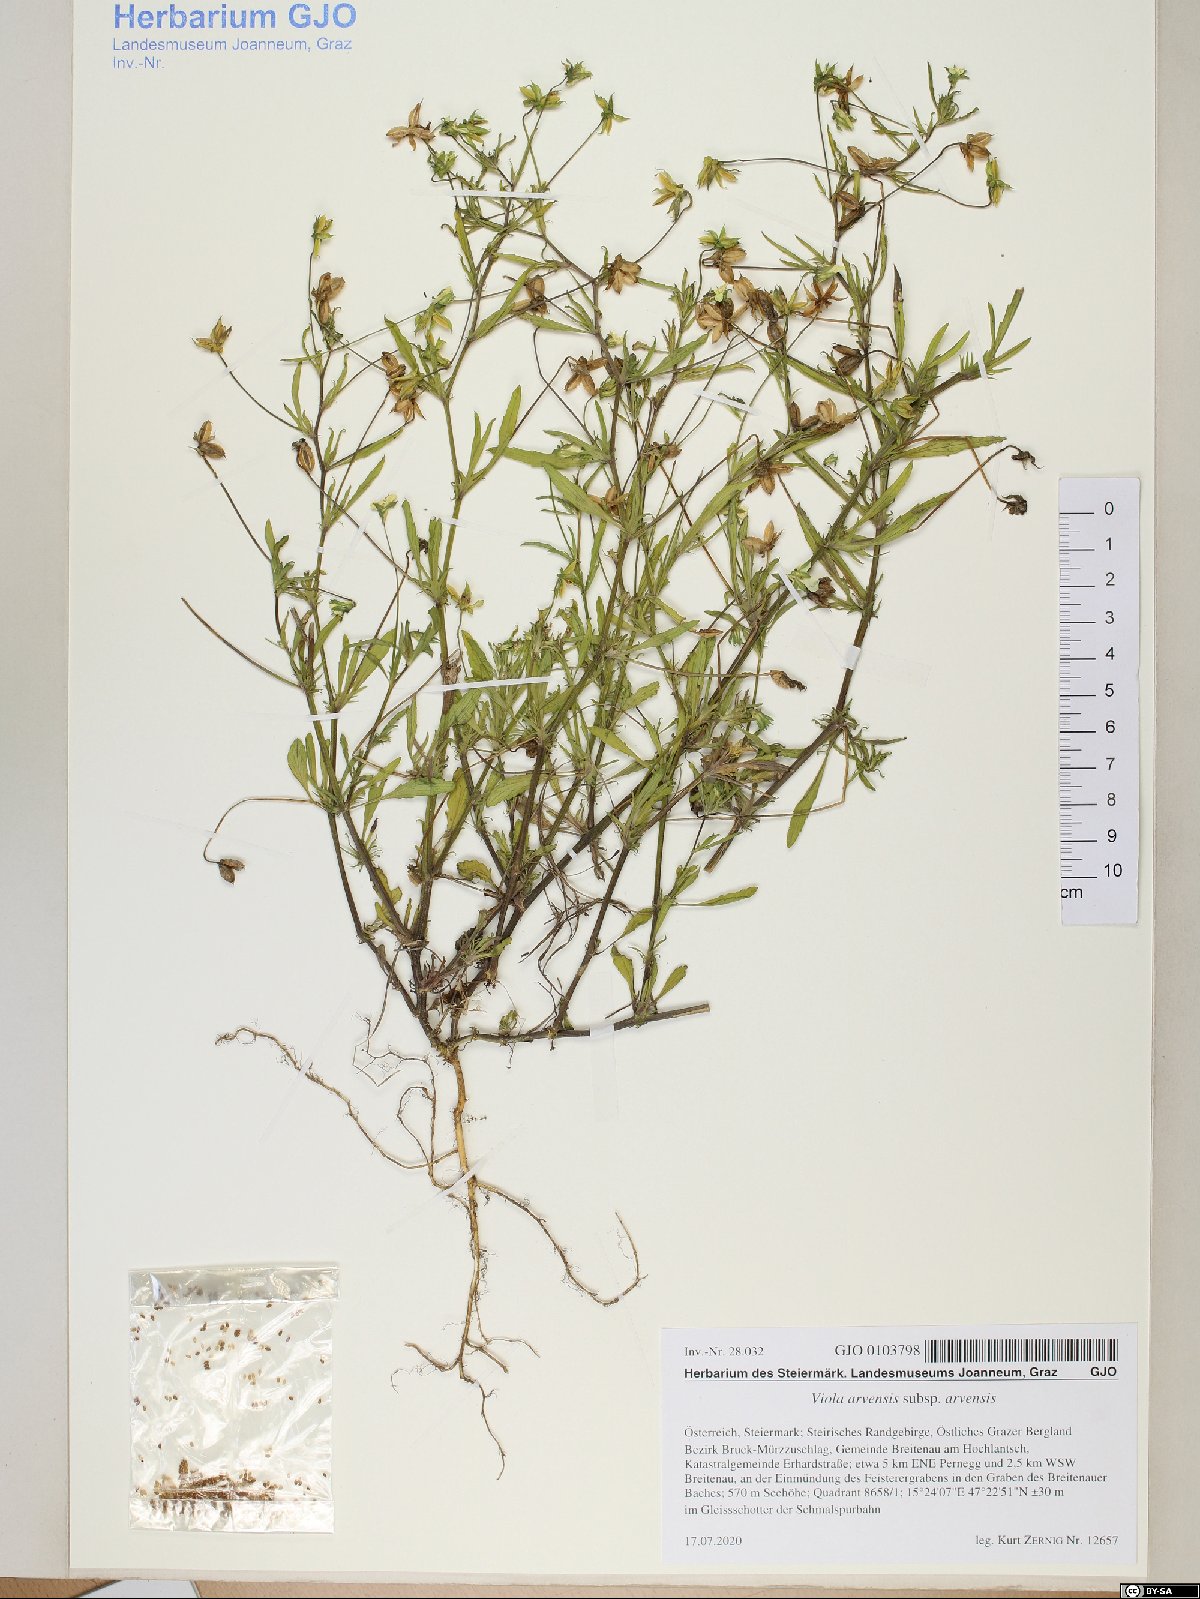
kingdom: Plantae
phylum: Tracheophyta
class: Magnoliopsida
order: Malpighiales
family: Violaceae
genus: Viola
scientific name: Viola arvensis
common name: Field pansy
